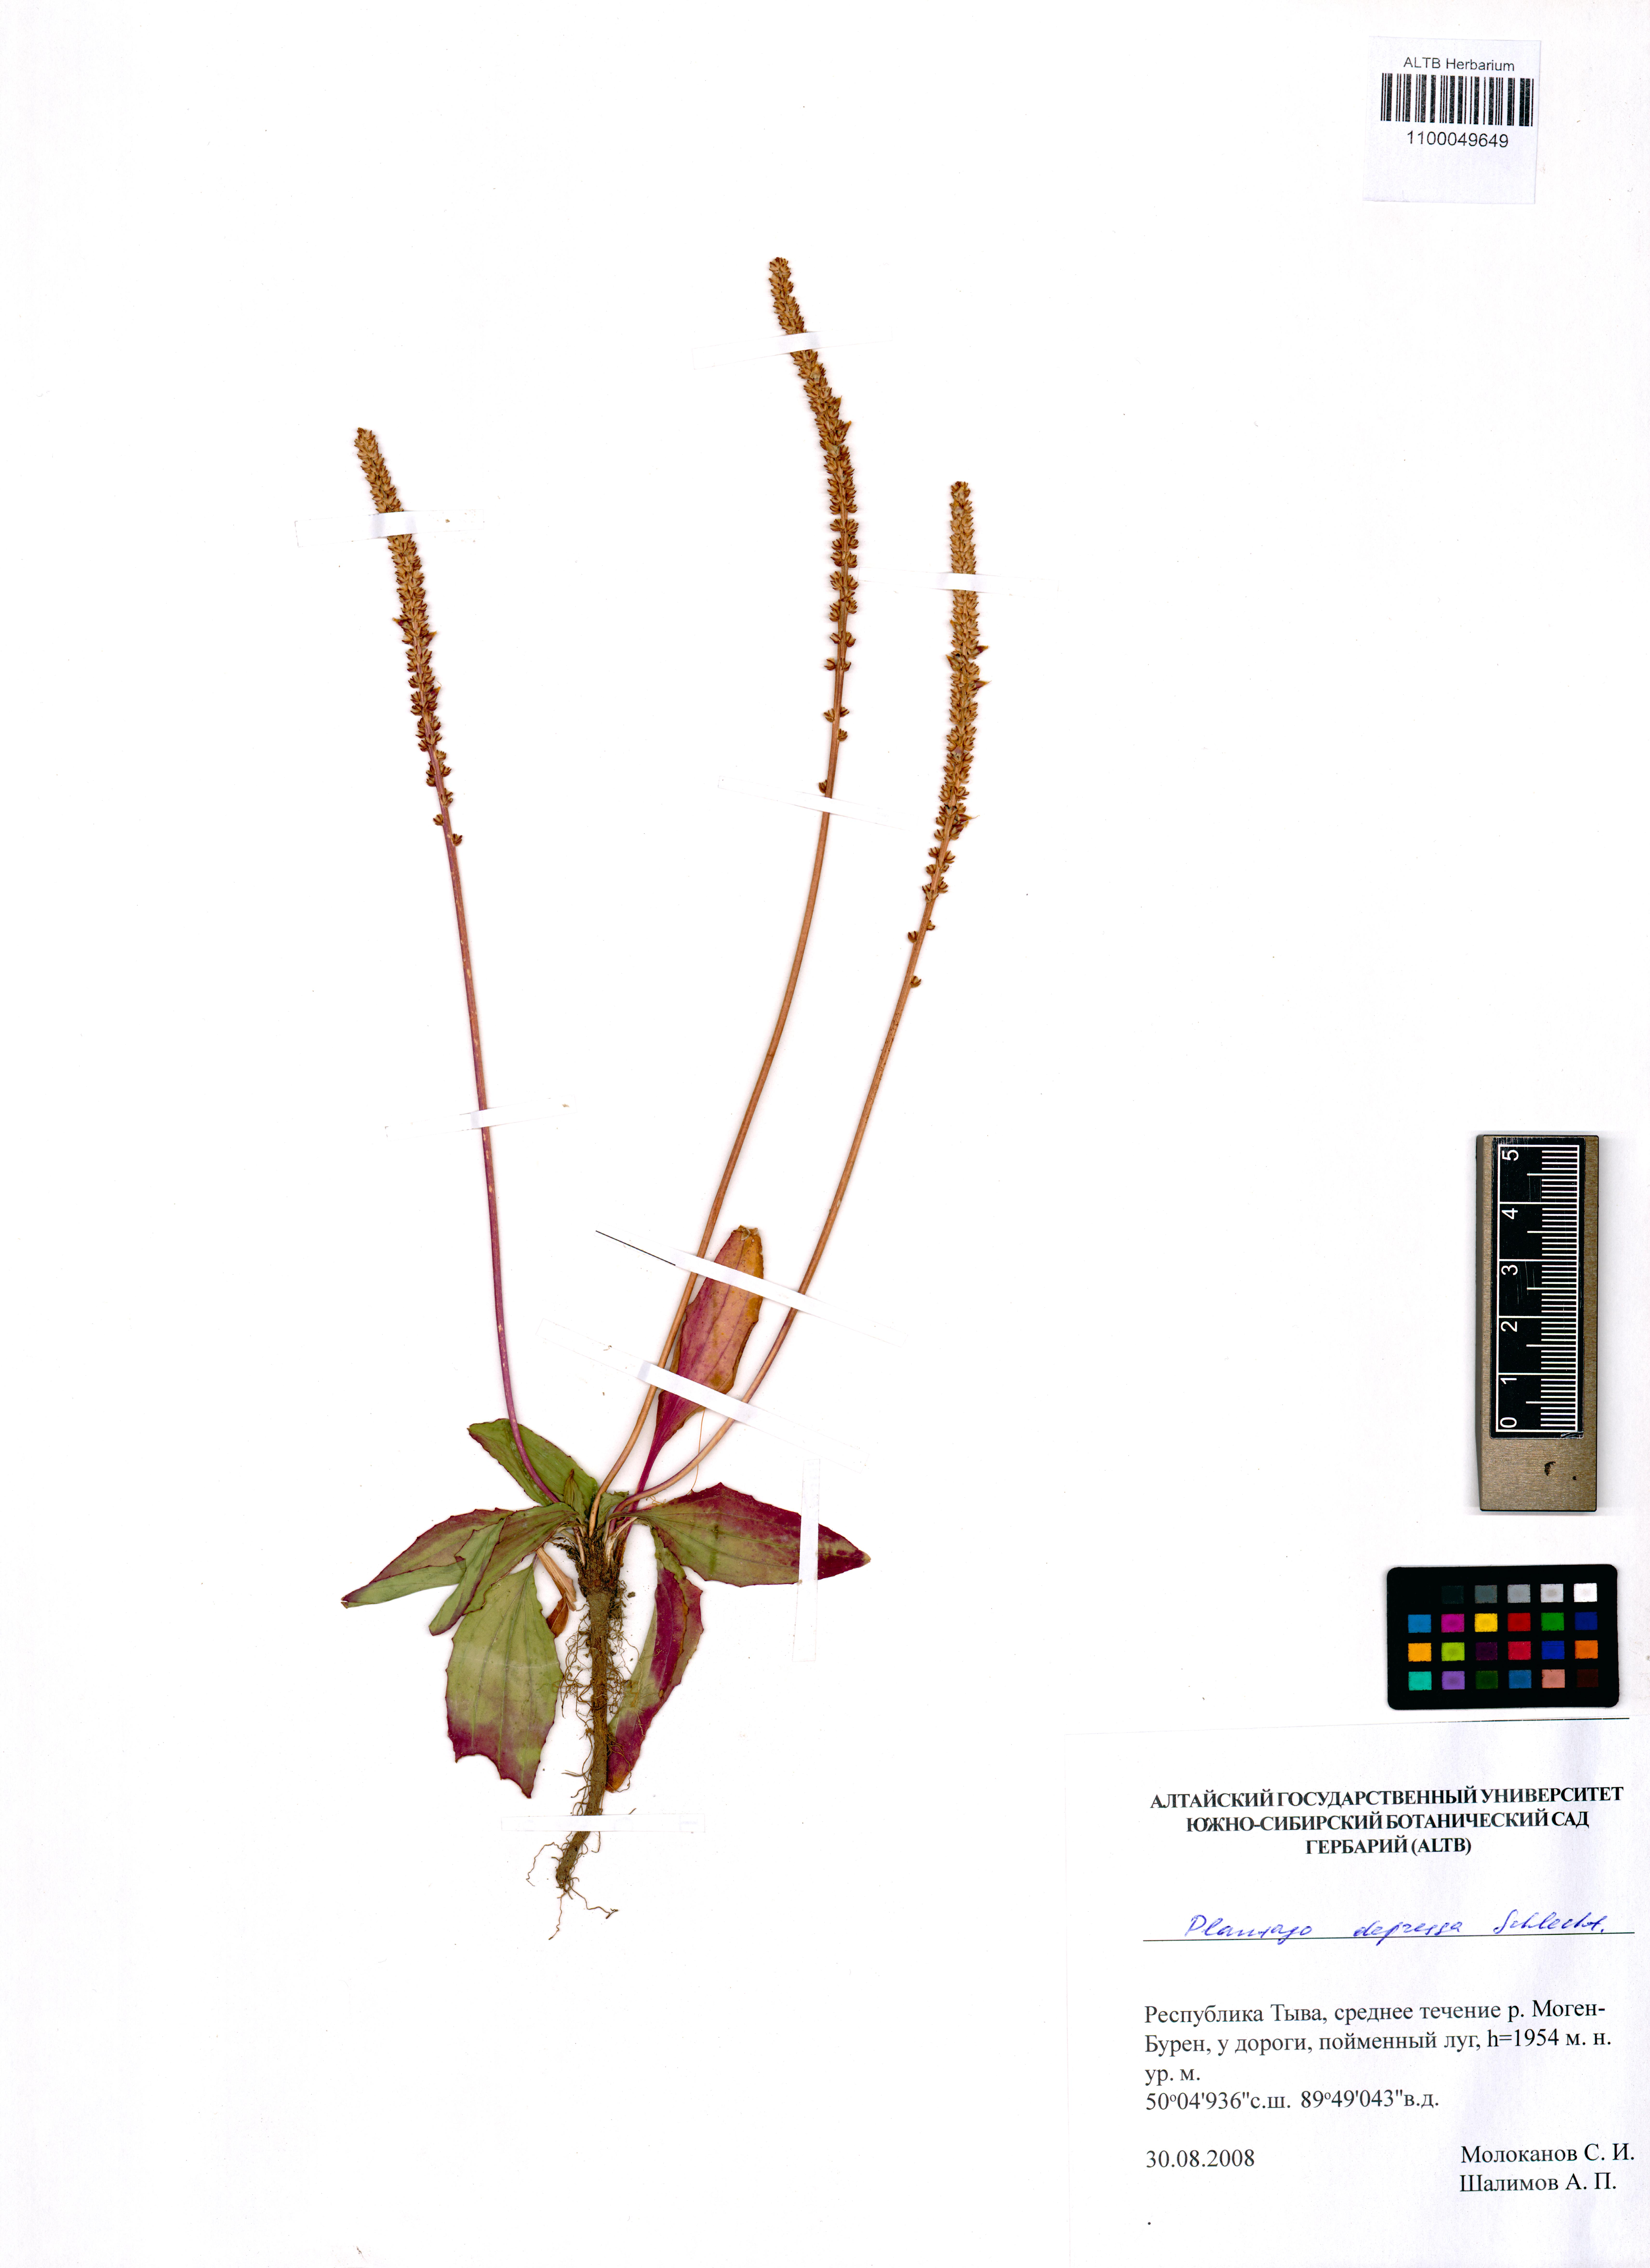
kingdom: Plantae
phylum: Tracheophyta
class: Magnoliopsida
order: Lamiales
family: Plantaginaceae
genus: Plantago
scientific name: Plantago depressa
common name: Depressed plantain
